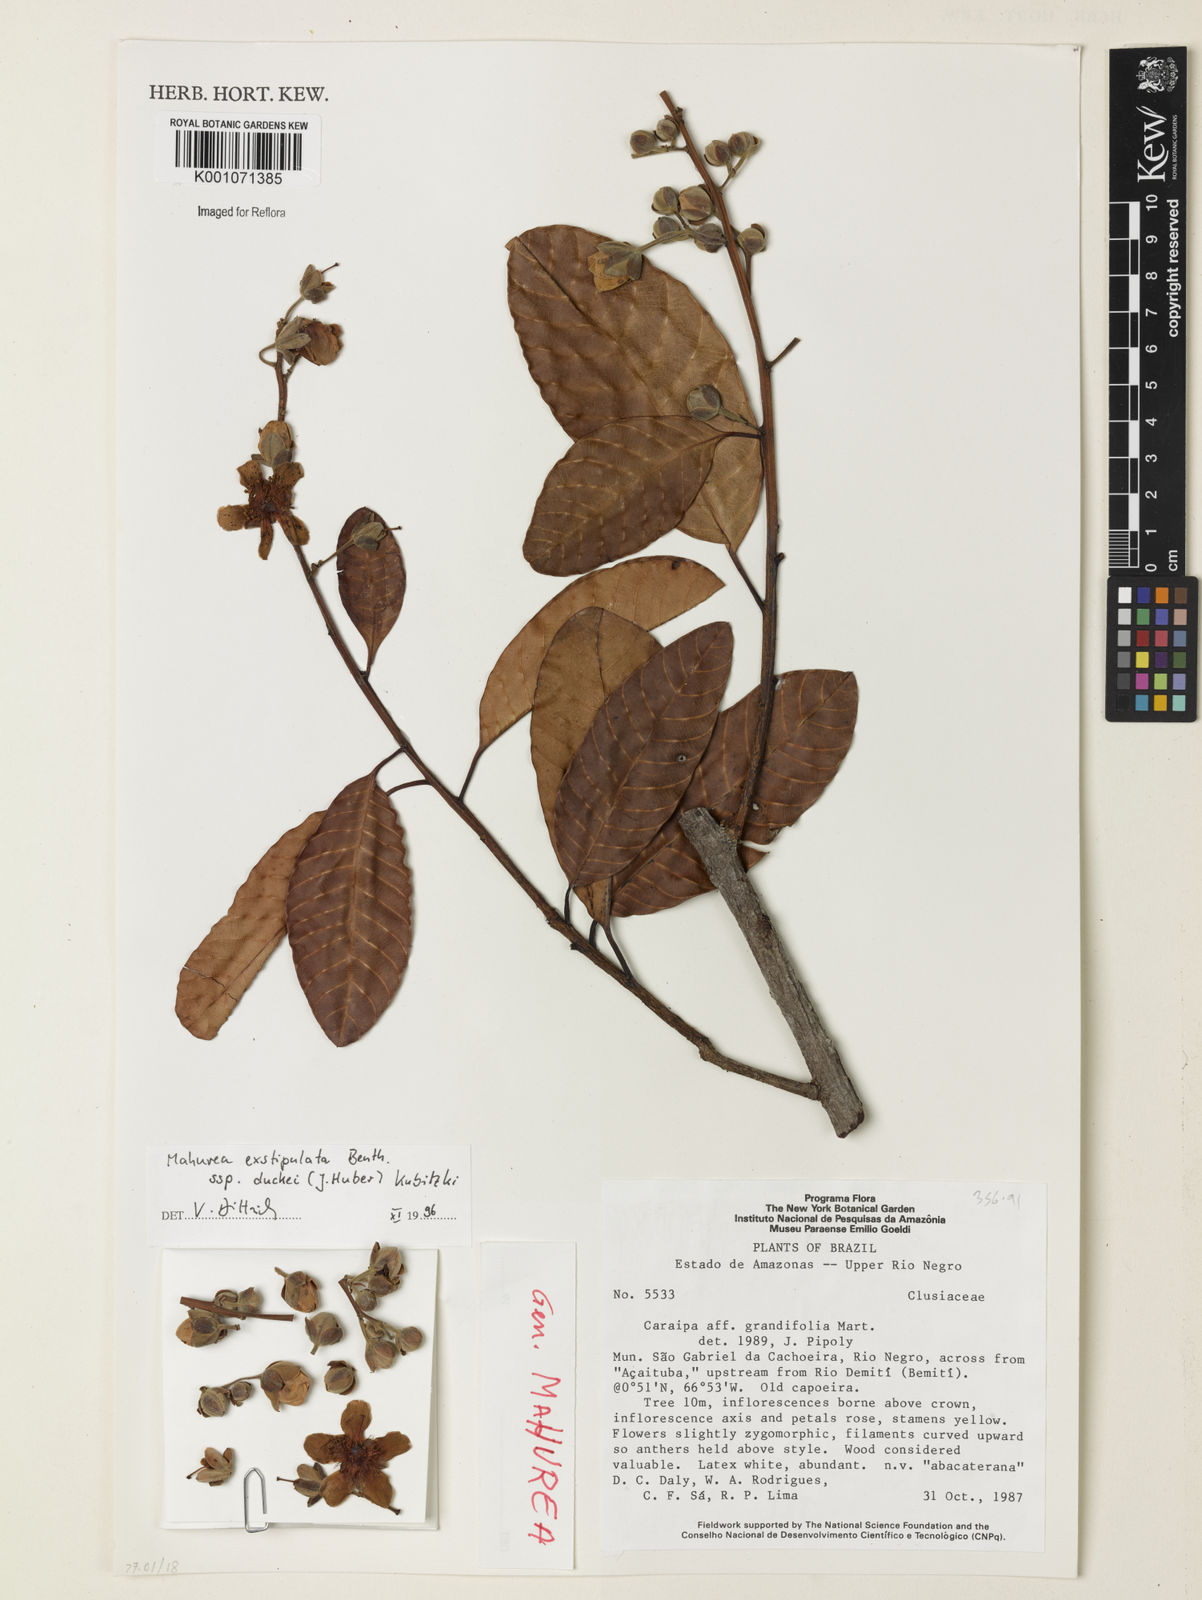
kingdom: Plantae
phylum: Tracheophyta
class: Magnoliopsida
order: Malpighiales
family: Calophyllaceae
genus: Mahurea
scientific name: Mahurea exstipulata
